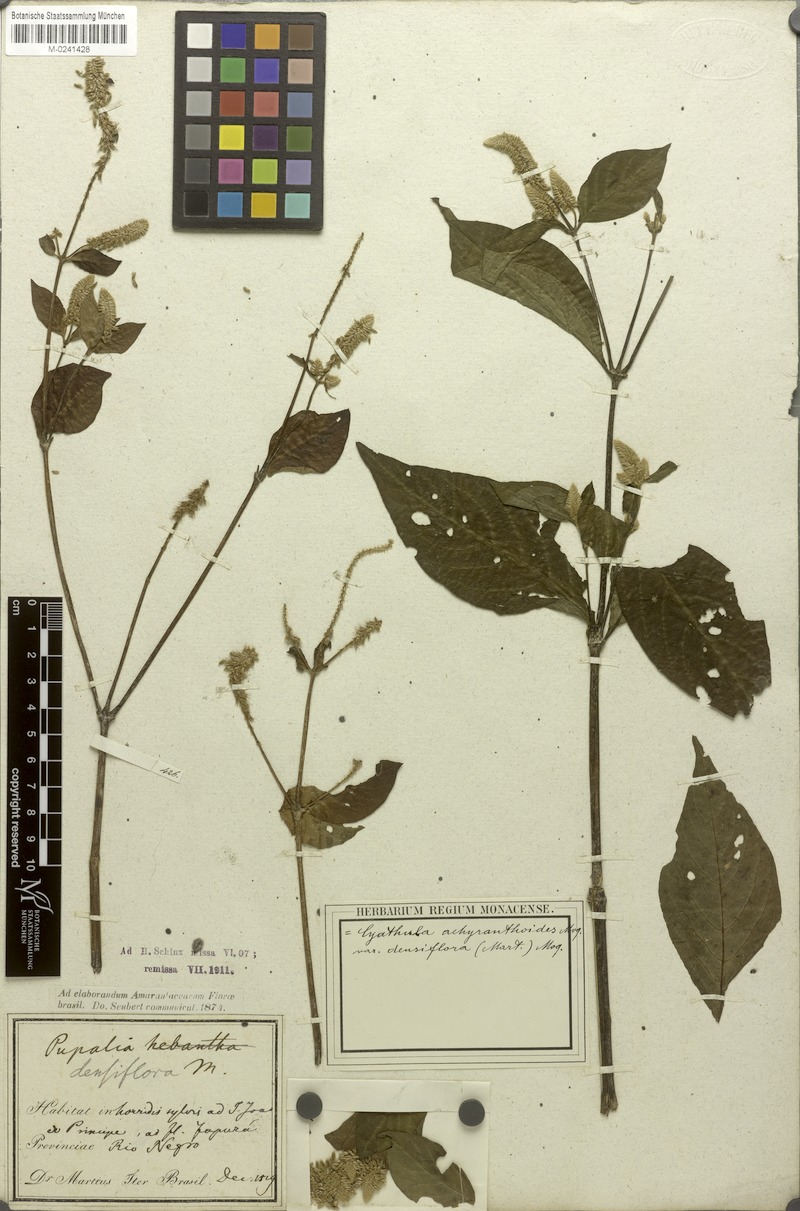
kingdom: Plantae
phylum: Tracheophyta
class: Magnoliopsida
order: Caryophyllales
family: Amaranthaceae
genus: Cyathula
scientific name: Cyathula achyranthoides
